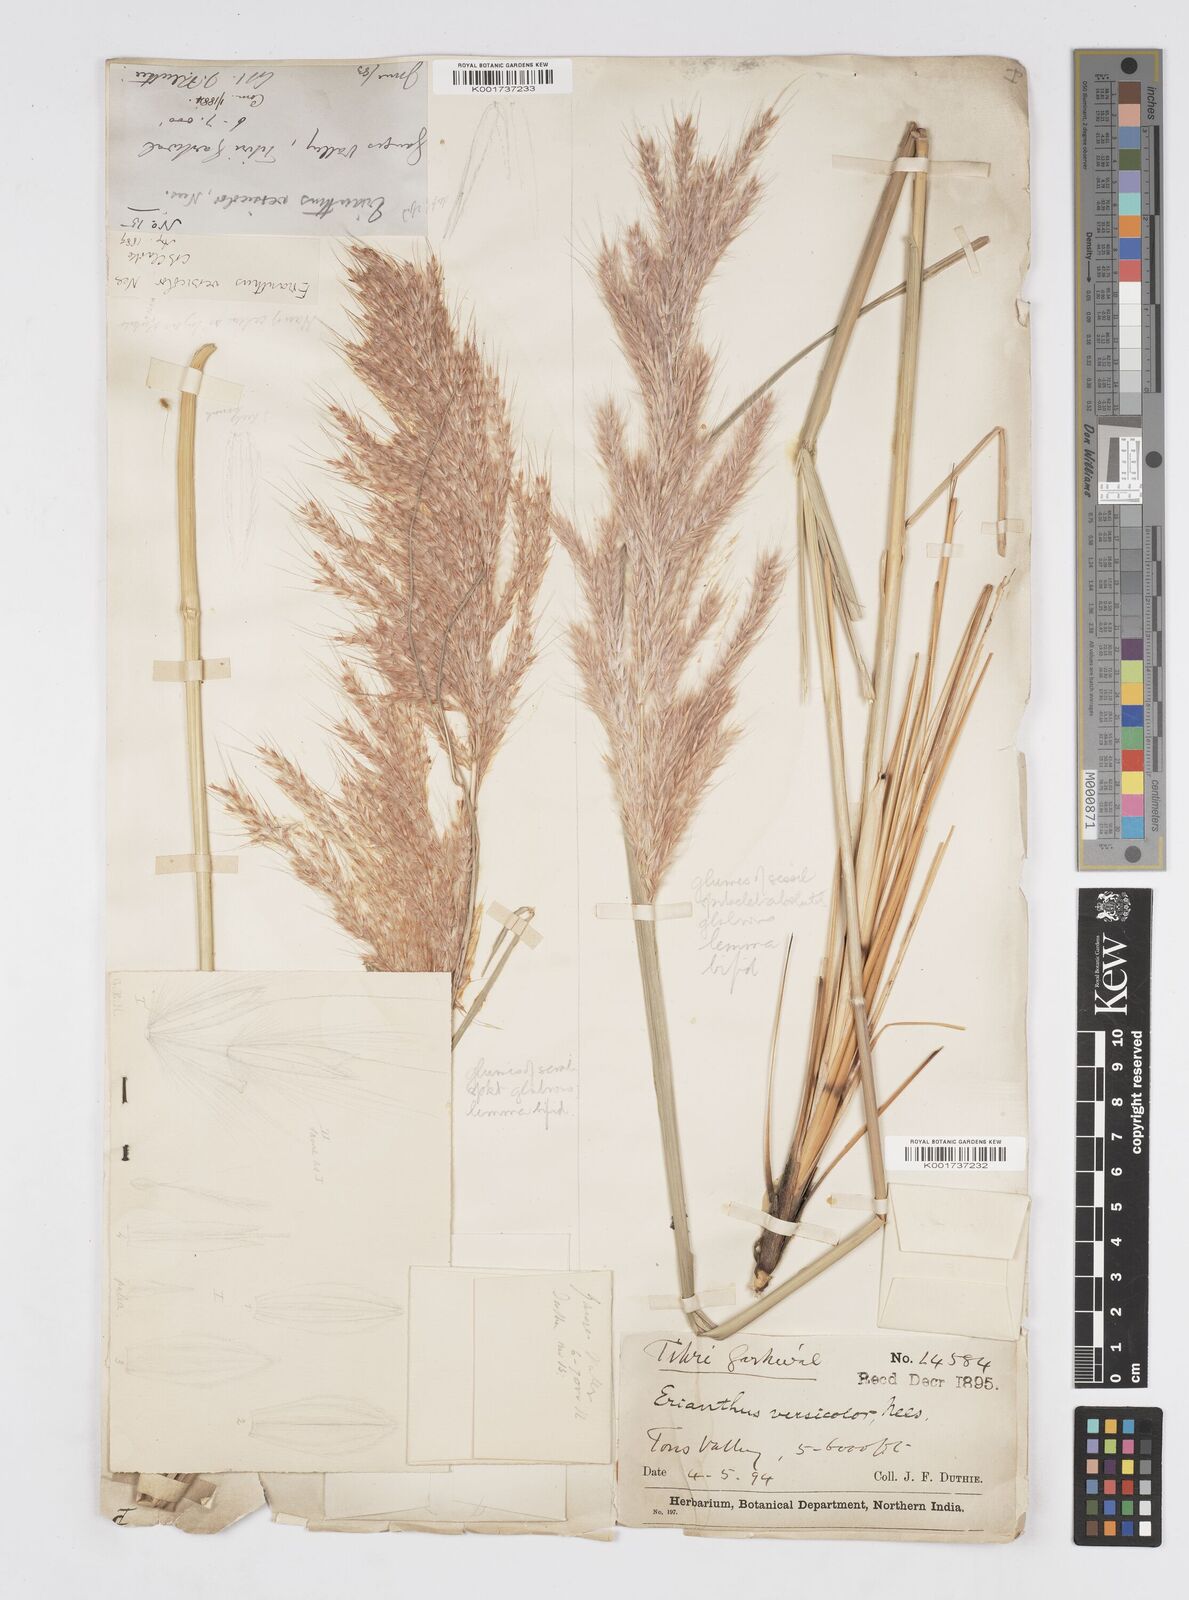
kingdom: Plantae
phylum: Tracheophyta
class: Liliopsida
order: Poales
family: Poaceae
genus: Melinis
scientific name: Melinis longiseta
